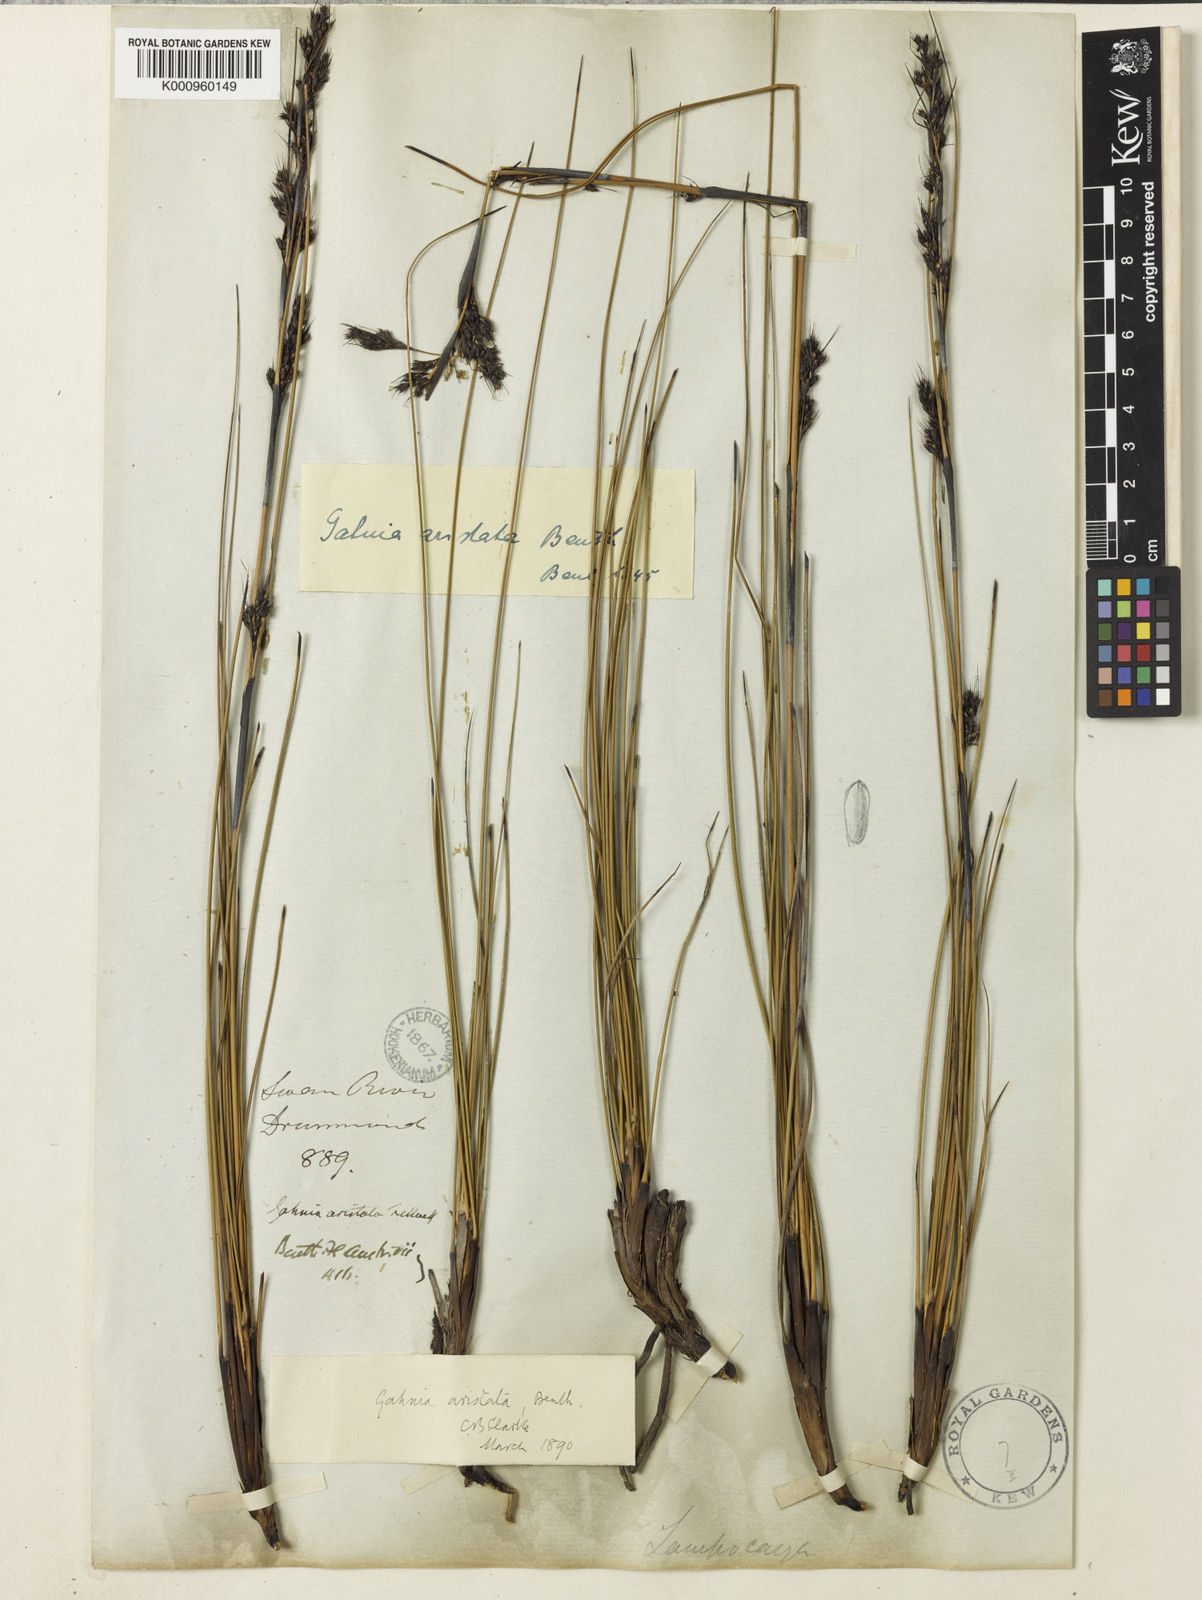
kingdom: Plantae
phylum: Tracheophyta
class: Liliopsida
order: Poales
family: Cyperaceae
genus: Gahnia
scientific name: Gahnia aristata
